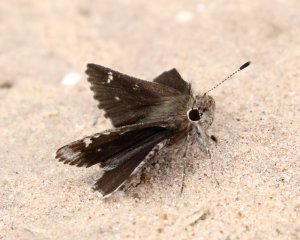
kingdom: Animalia
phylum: Arthropoda
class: Insecta
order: Lepidoptera
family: Hesperiidae
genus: Mastor
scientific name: Mastor nysa
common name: Nysa Roadside-Skipper
